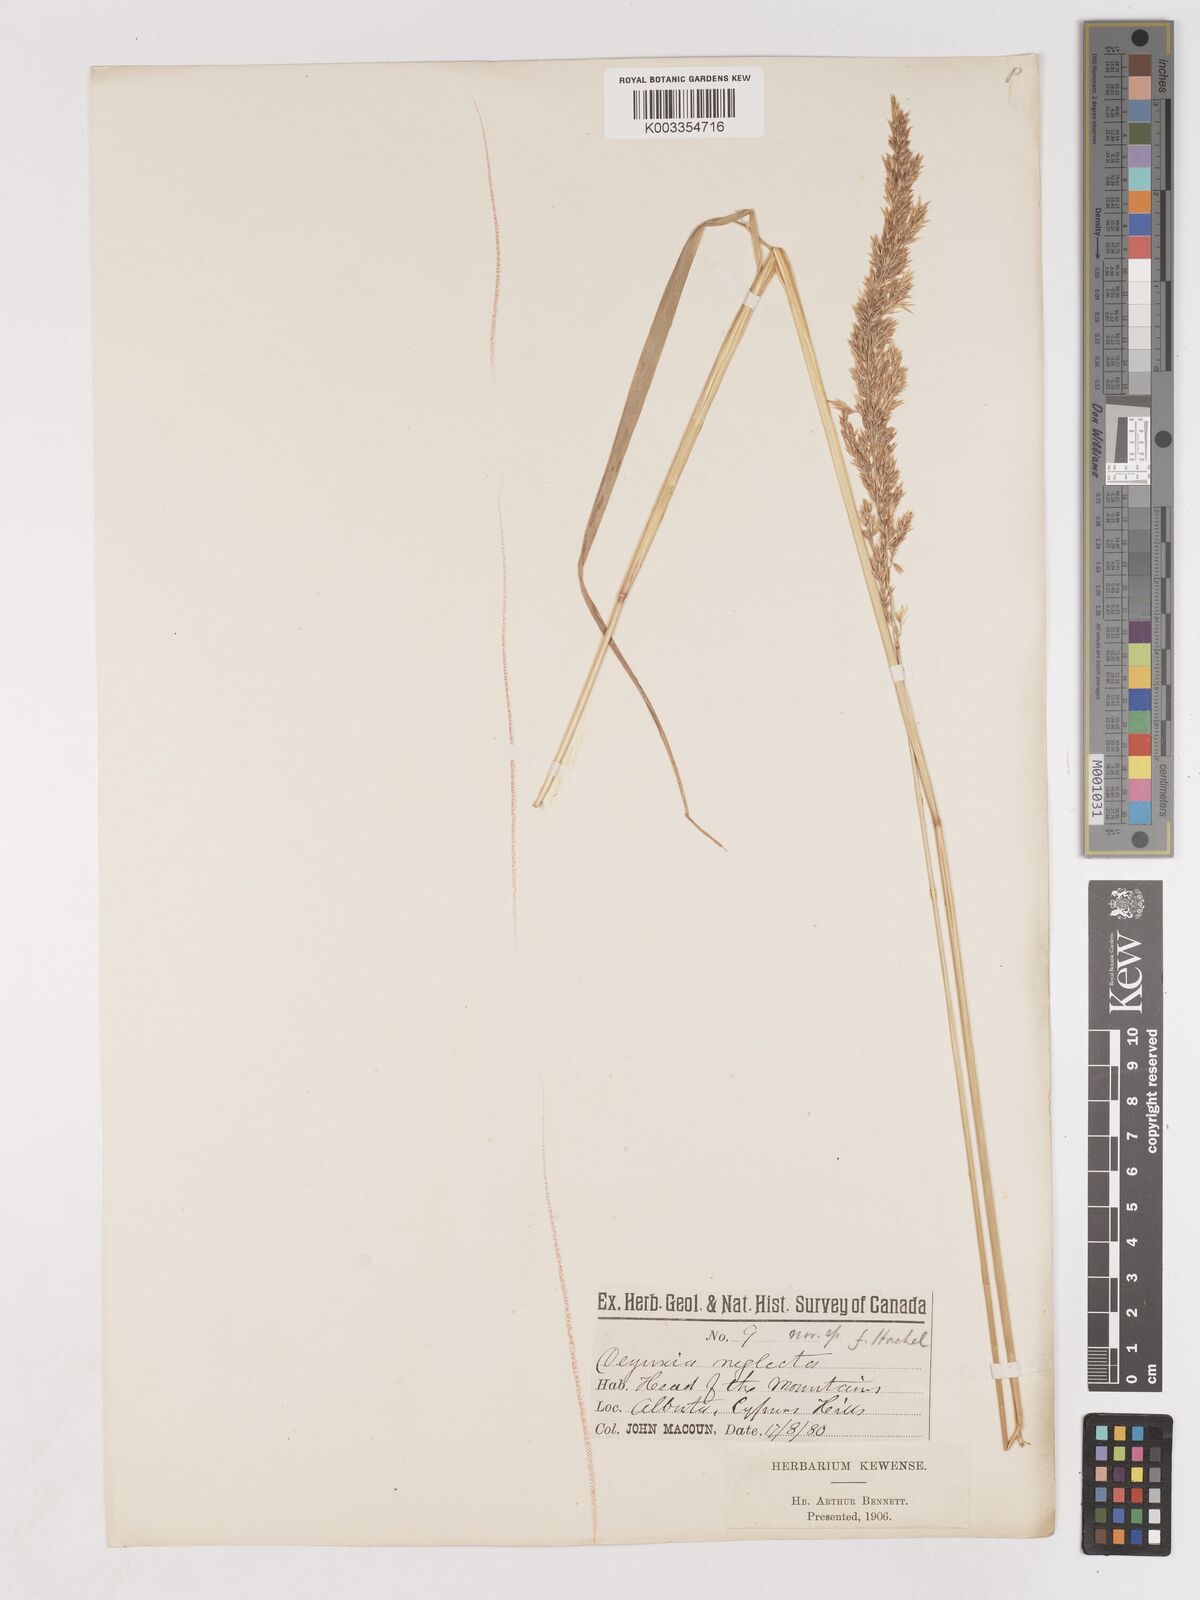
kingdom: Plantae
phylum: Tracheophyta
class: Liliopsida
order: Poales
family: Poaceae
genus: Cinnagrostis
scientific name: Cinnagrostis recta
